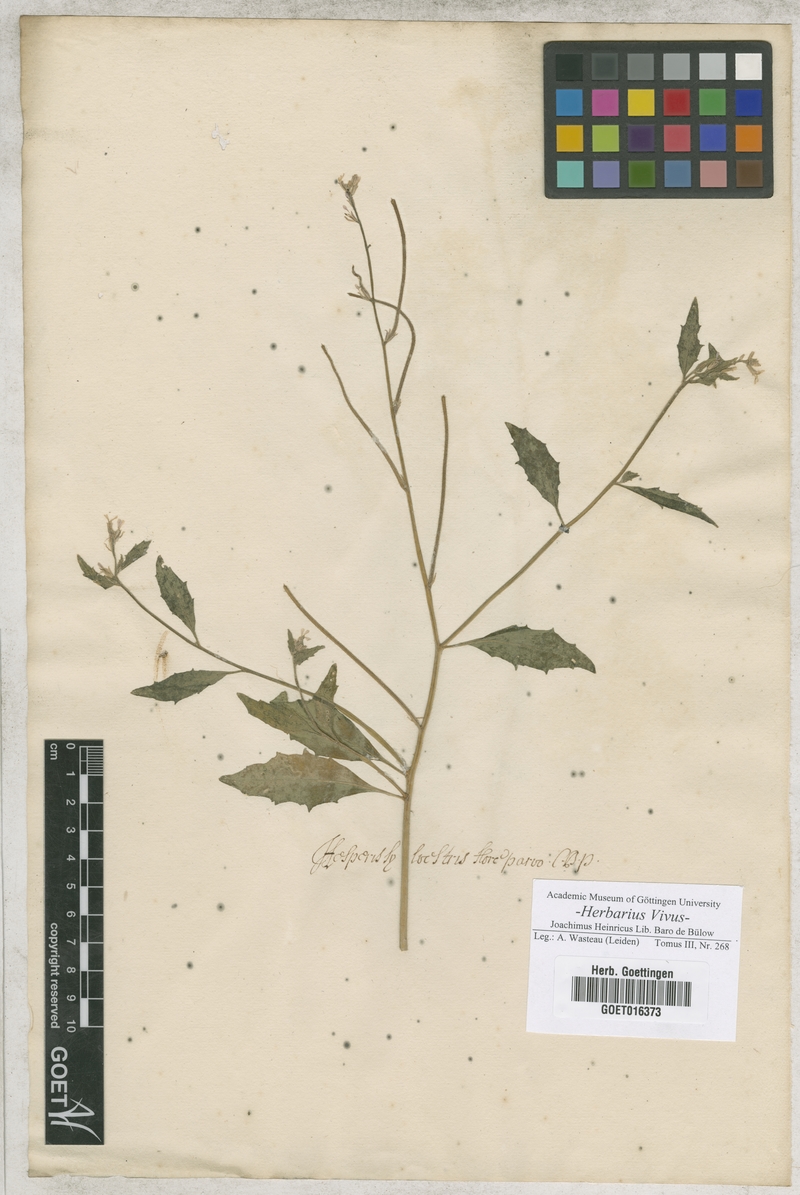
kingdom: Plantae
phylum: Tracheophyta
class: Magnoliopsida
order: Brassicales
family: Brassicaceae
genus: Strigosella
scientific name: Strigosella africana
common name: African mustard
